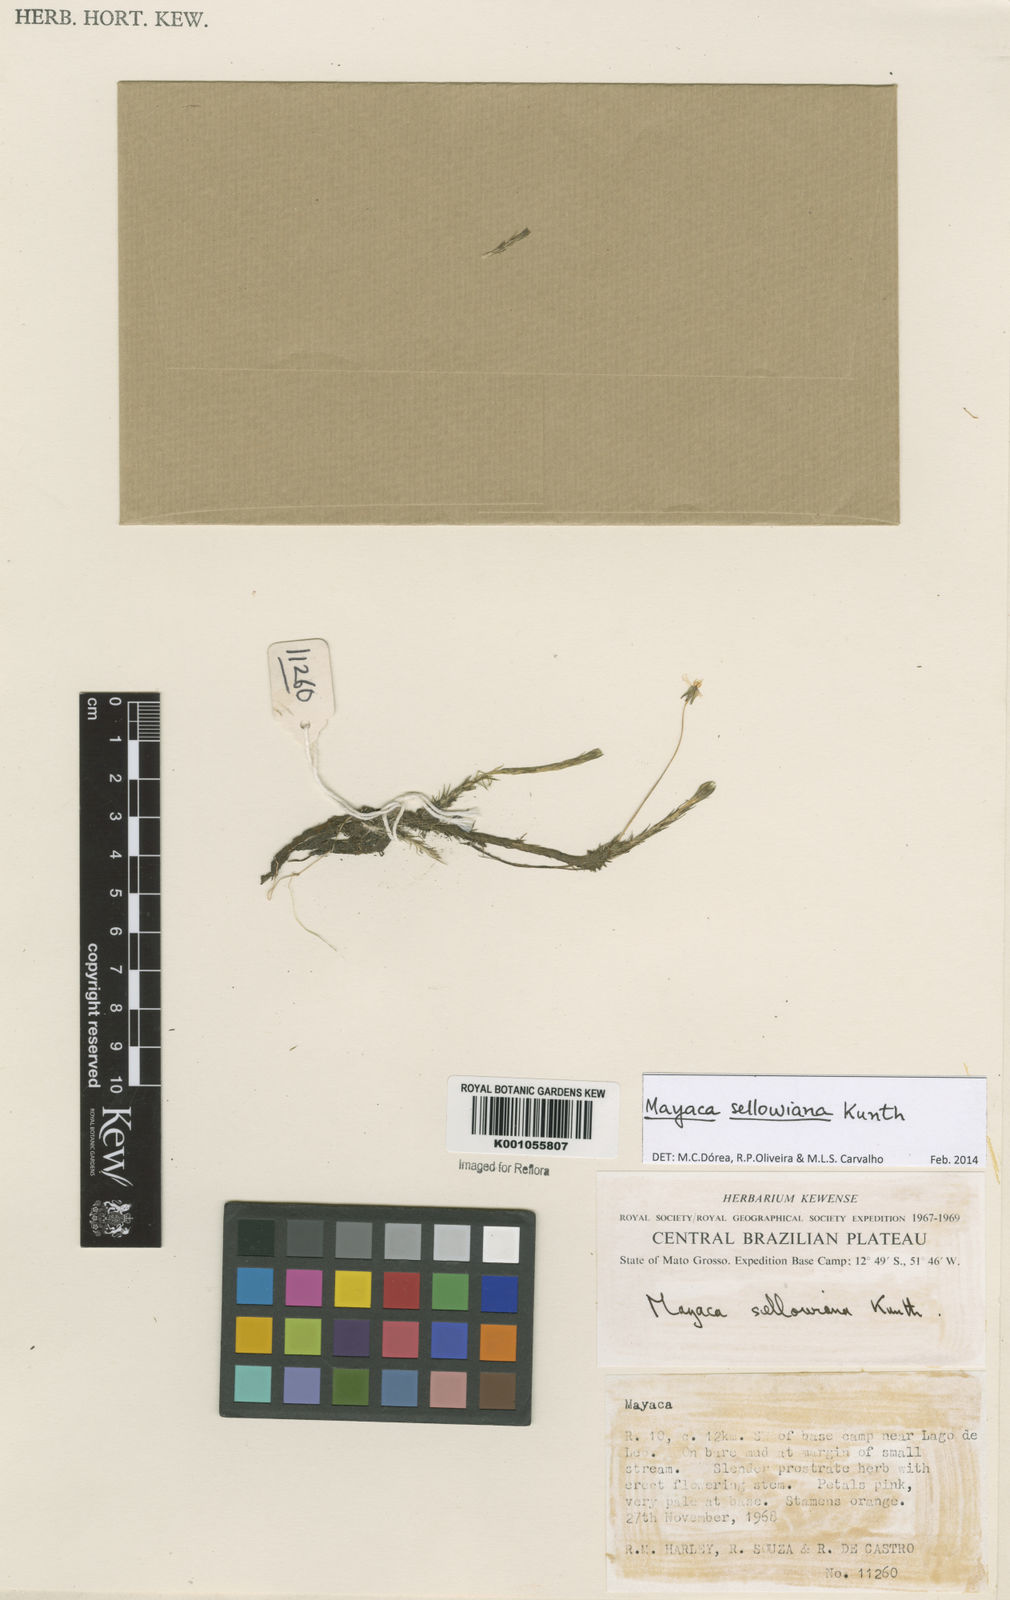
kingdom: Plantae
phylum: Tracheophyta
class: Liliopsida
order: Poales
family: Mayacaceae
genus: Mayaca
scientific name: Mayaca sellowiana
